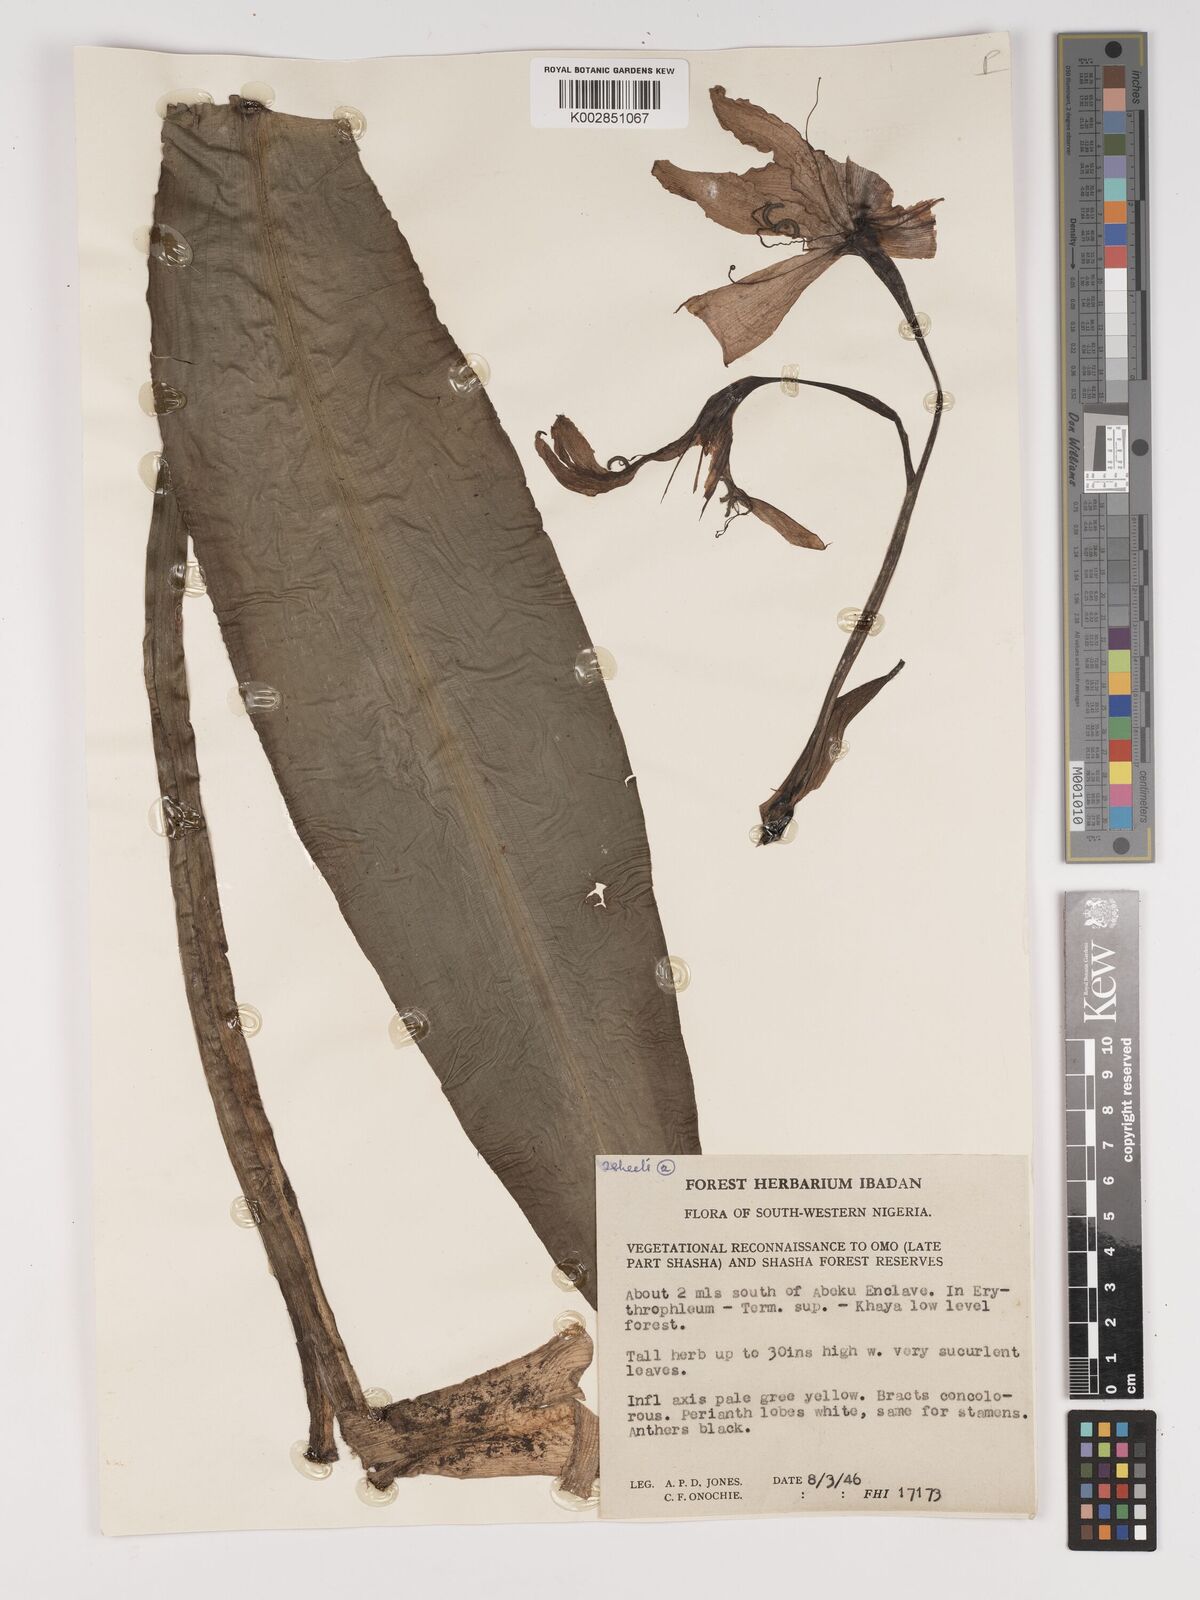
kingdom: Plantae
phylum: Tracheophyta
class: Liliopsida
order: Asparagales
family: Amaryllidaceae
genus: Crinum
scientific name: Crinum jagus
